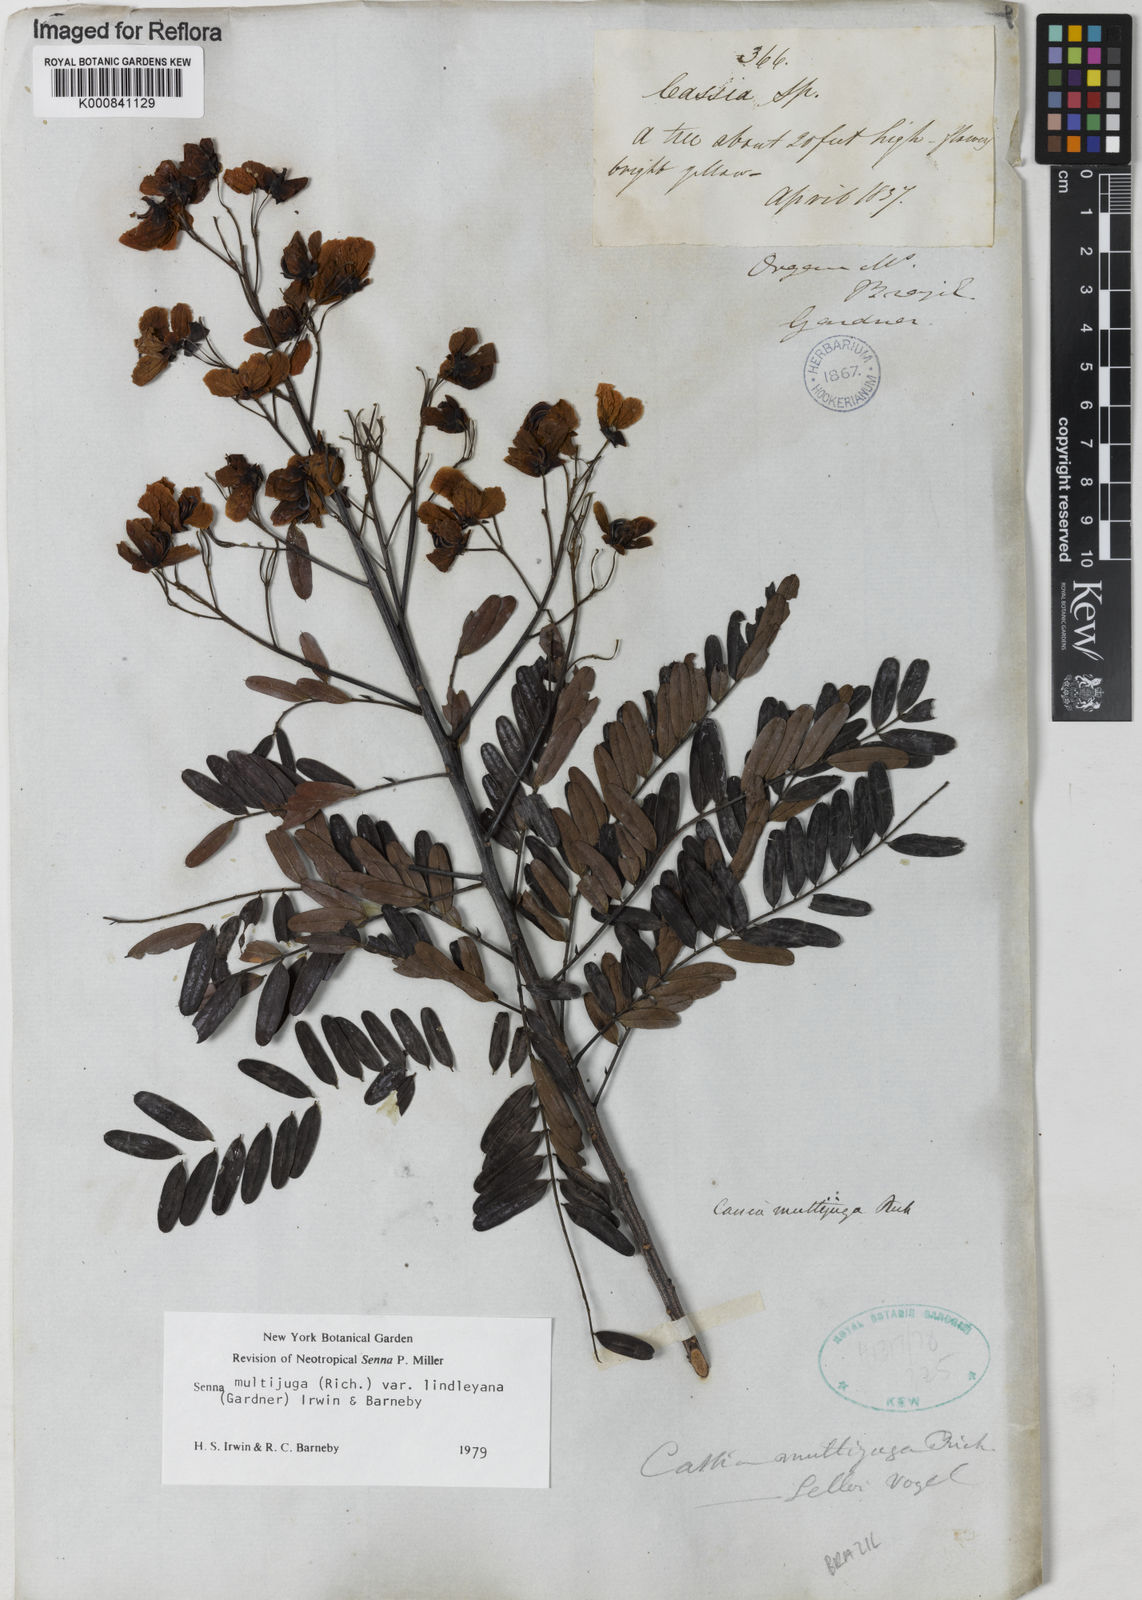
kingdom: Plantae
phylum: Tracheophyta
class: Magnoliopsida
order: Fabales
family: Fabaceae
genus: Senna
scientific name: Senna multijuga
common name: False sicklepod
